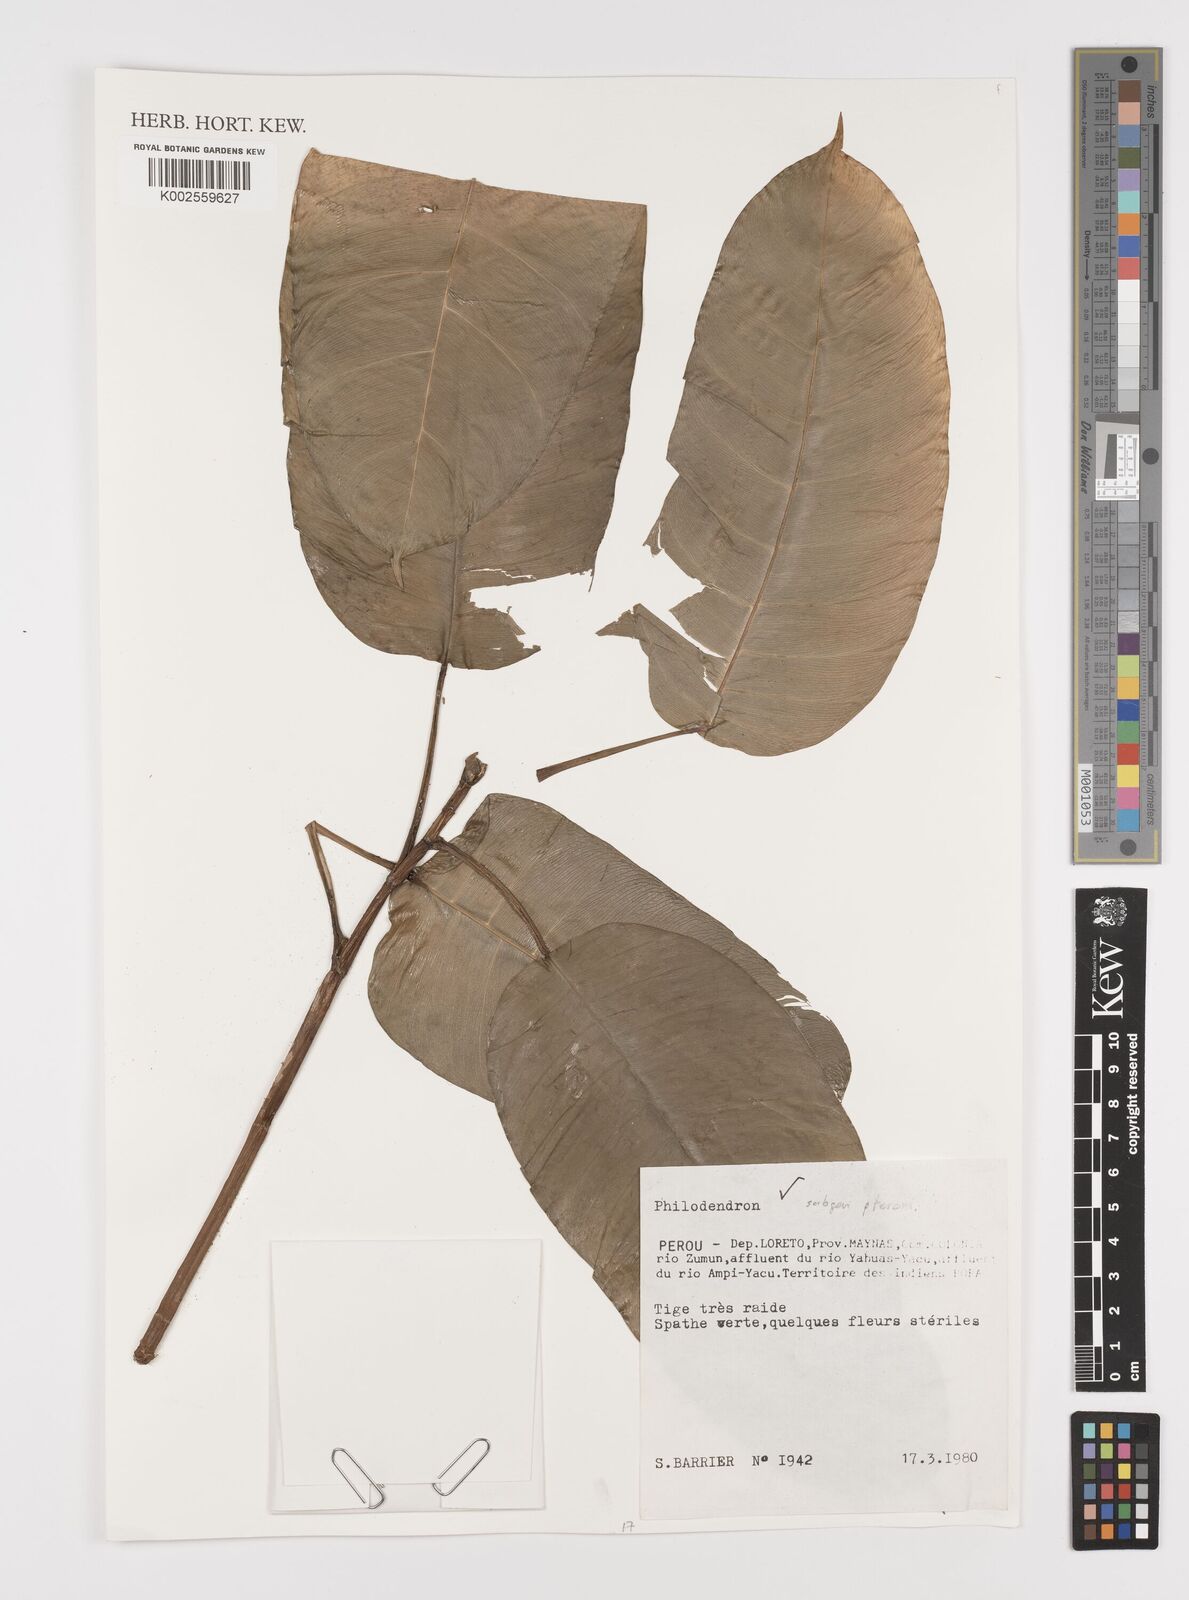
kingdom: Plantae
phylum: Tracheophyta
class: Liliopsida
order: Alismatales
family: Araceae
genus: Philodendron
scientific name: Philodendron venosum
